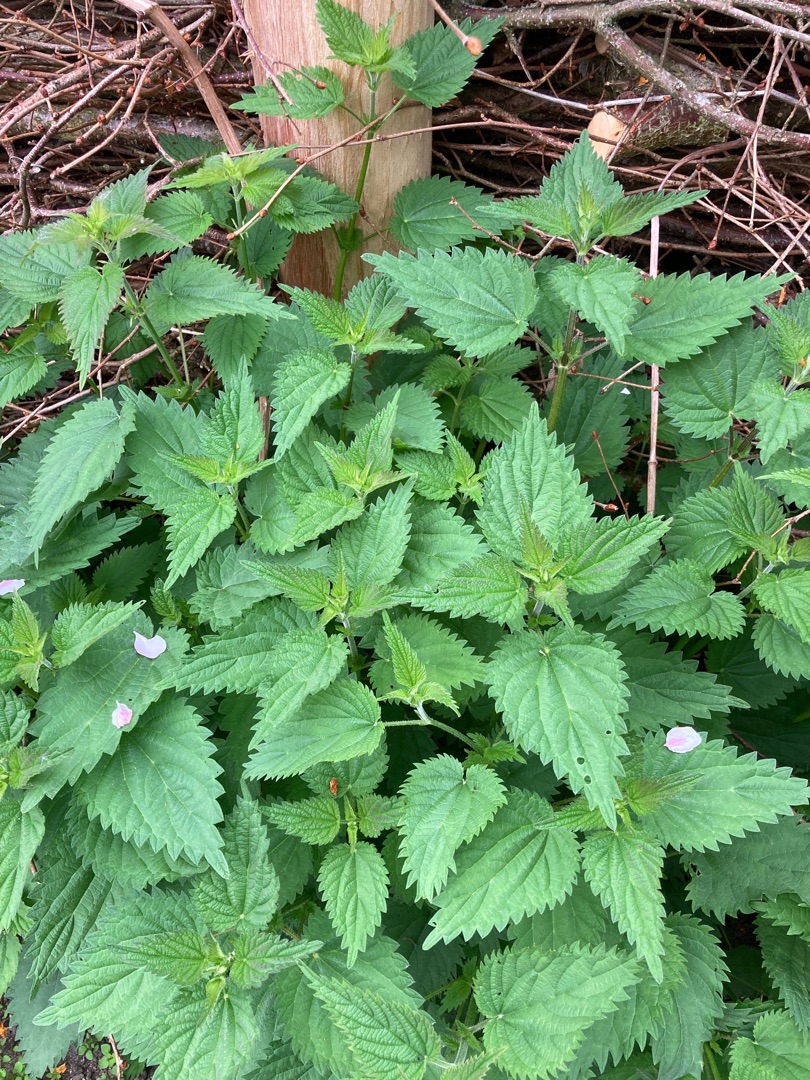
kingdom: Plantae
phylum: Tracheophyta
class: Magnoliopsida
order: Rosales
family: Urticaceae
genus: Urtica
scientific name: Urtica dioica
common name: Stor nælde
